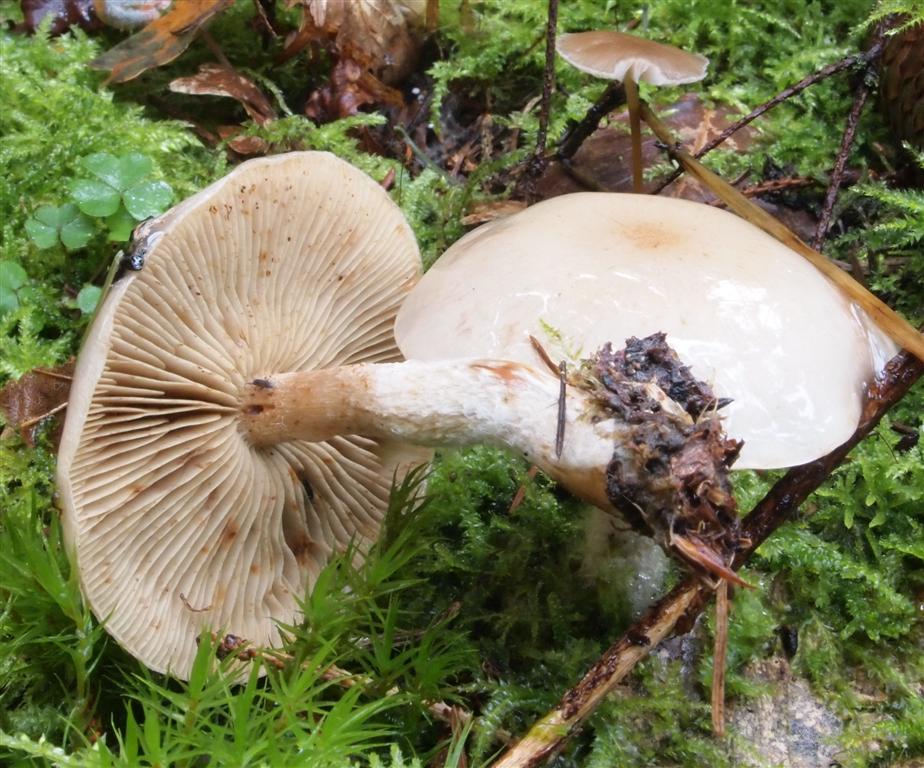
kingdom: Fungi
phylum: Basidiomycota
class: Agaricomycetes
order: Agaricales
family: Strophariaceae
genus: Pholiota
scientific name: Pholiota lenta
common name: løv-skælhat
